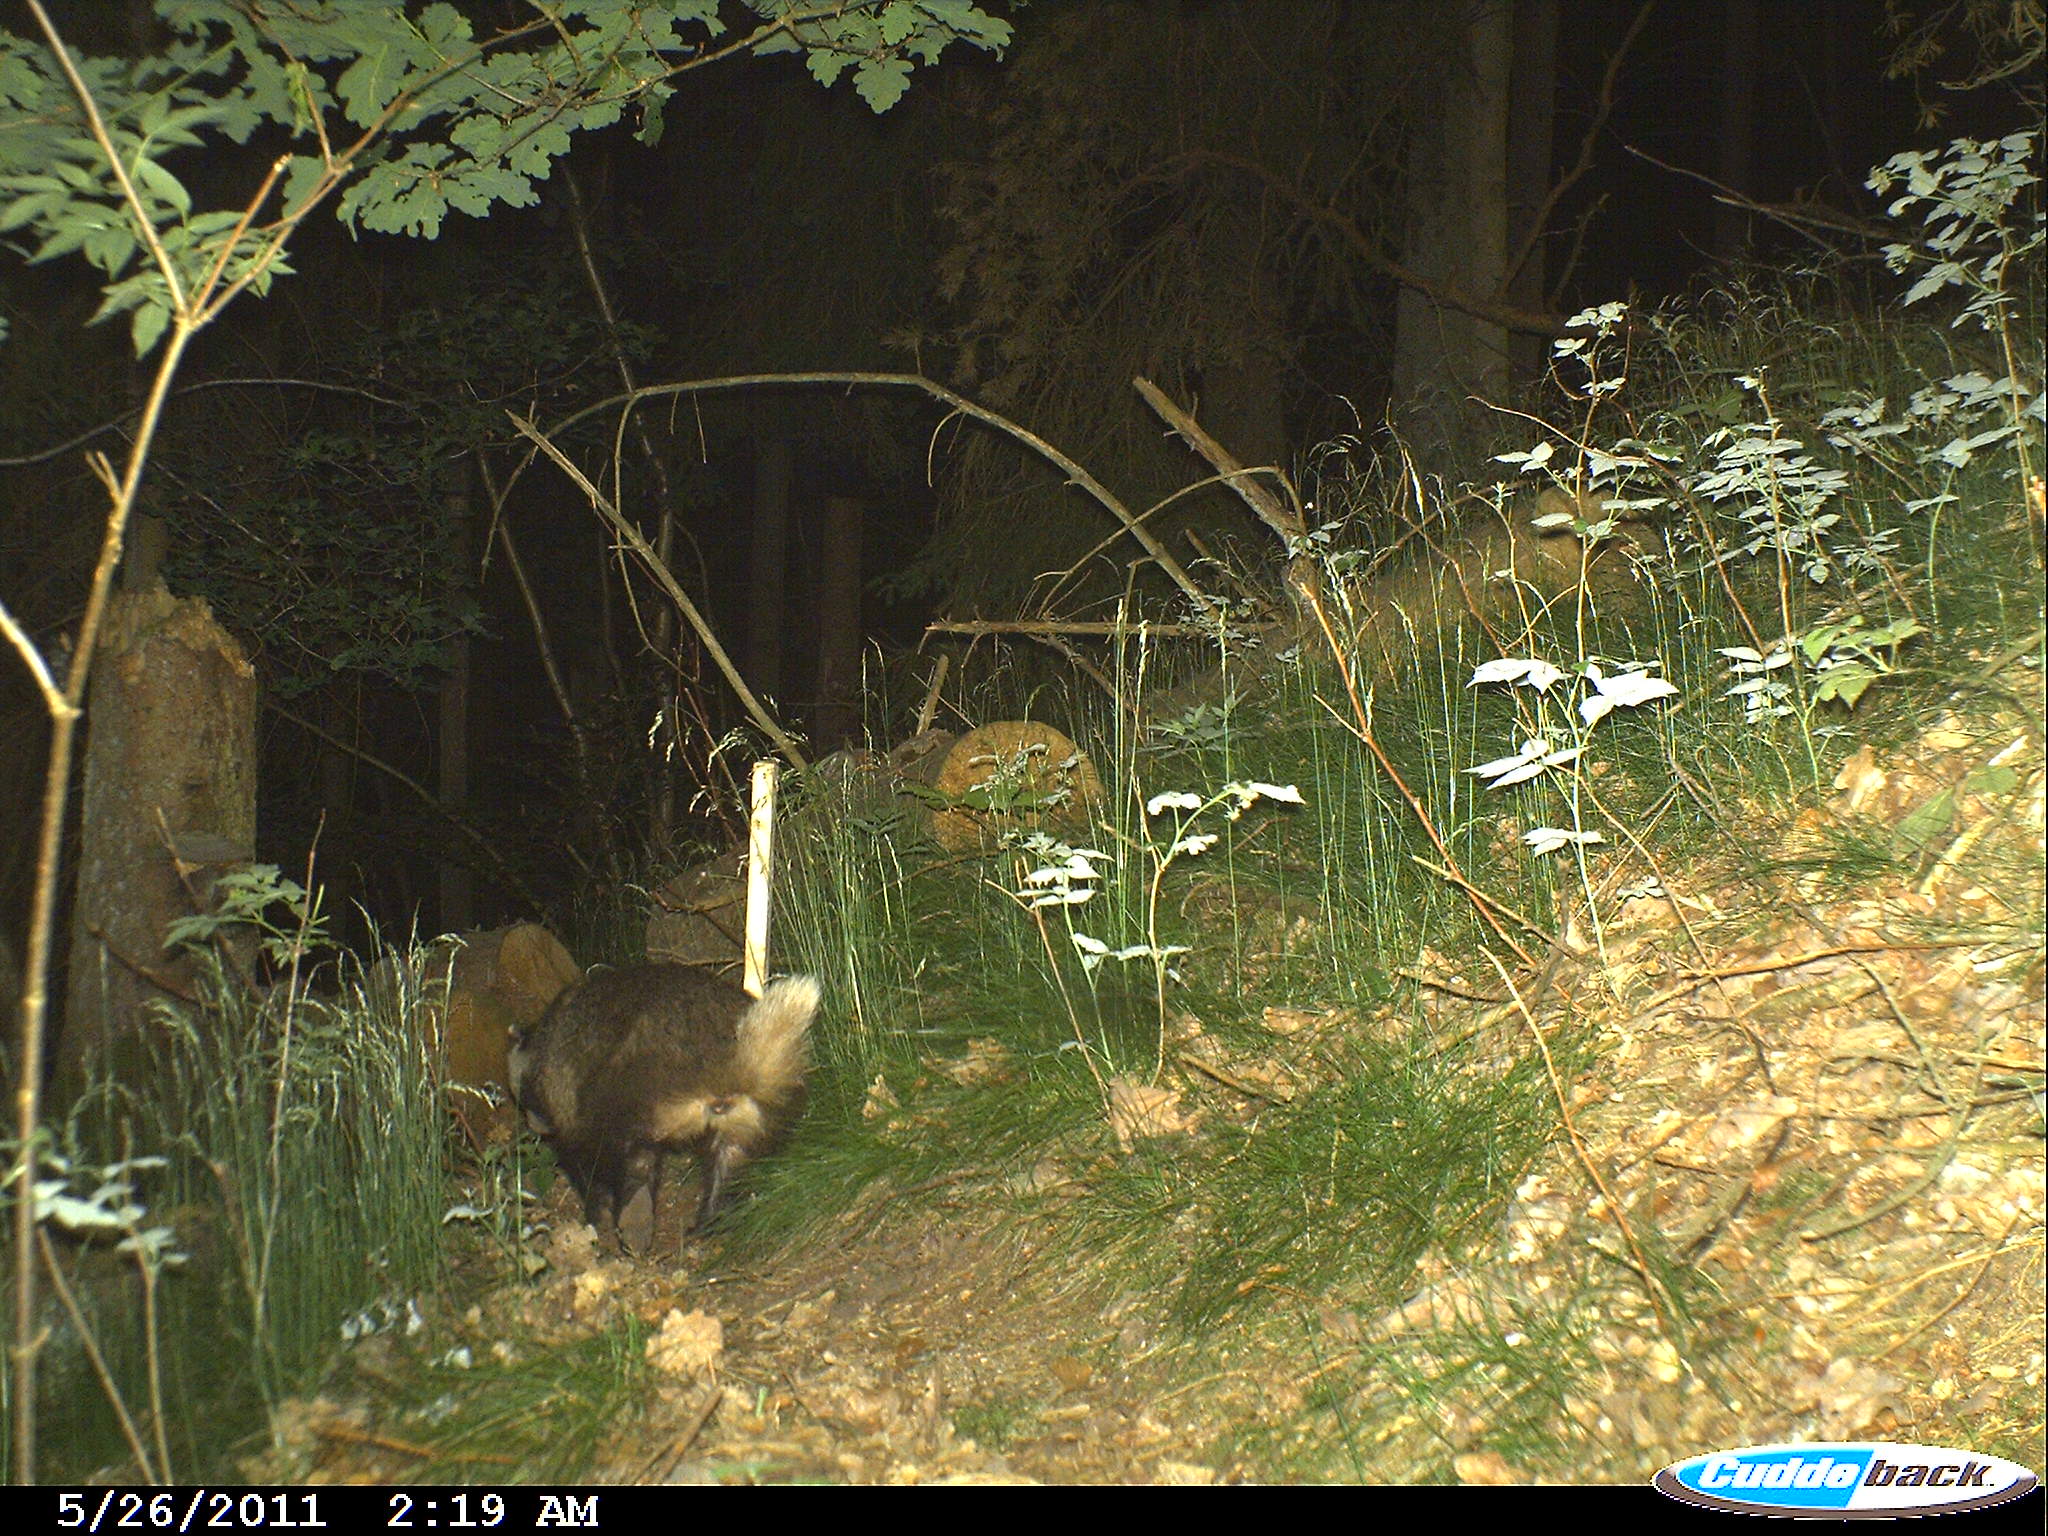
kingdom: Animalia
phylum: Chordata
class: Mammalia
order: Carnivora
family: Mustelidae
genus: Meles
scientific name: Meles meles
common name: Eurasian badger
